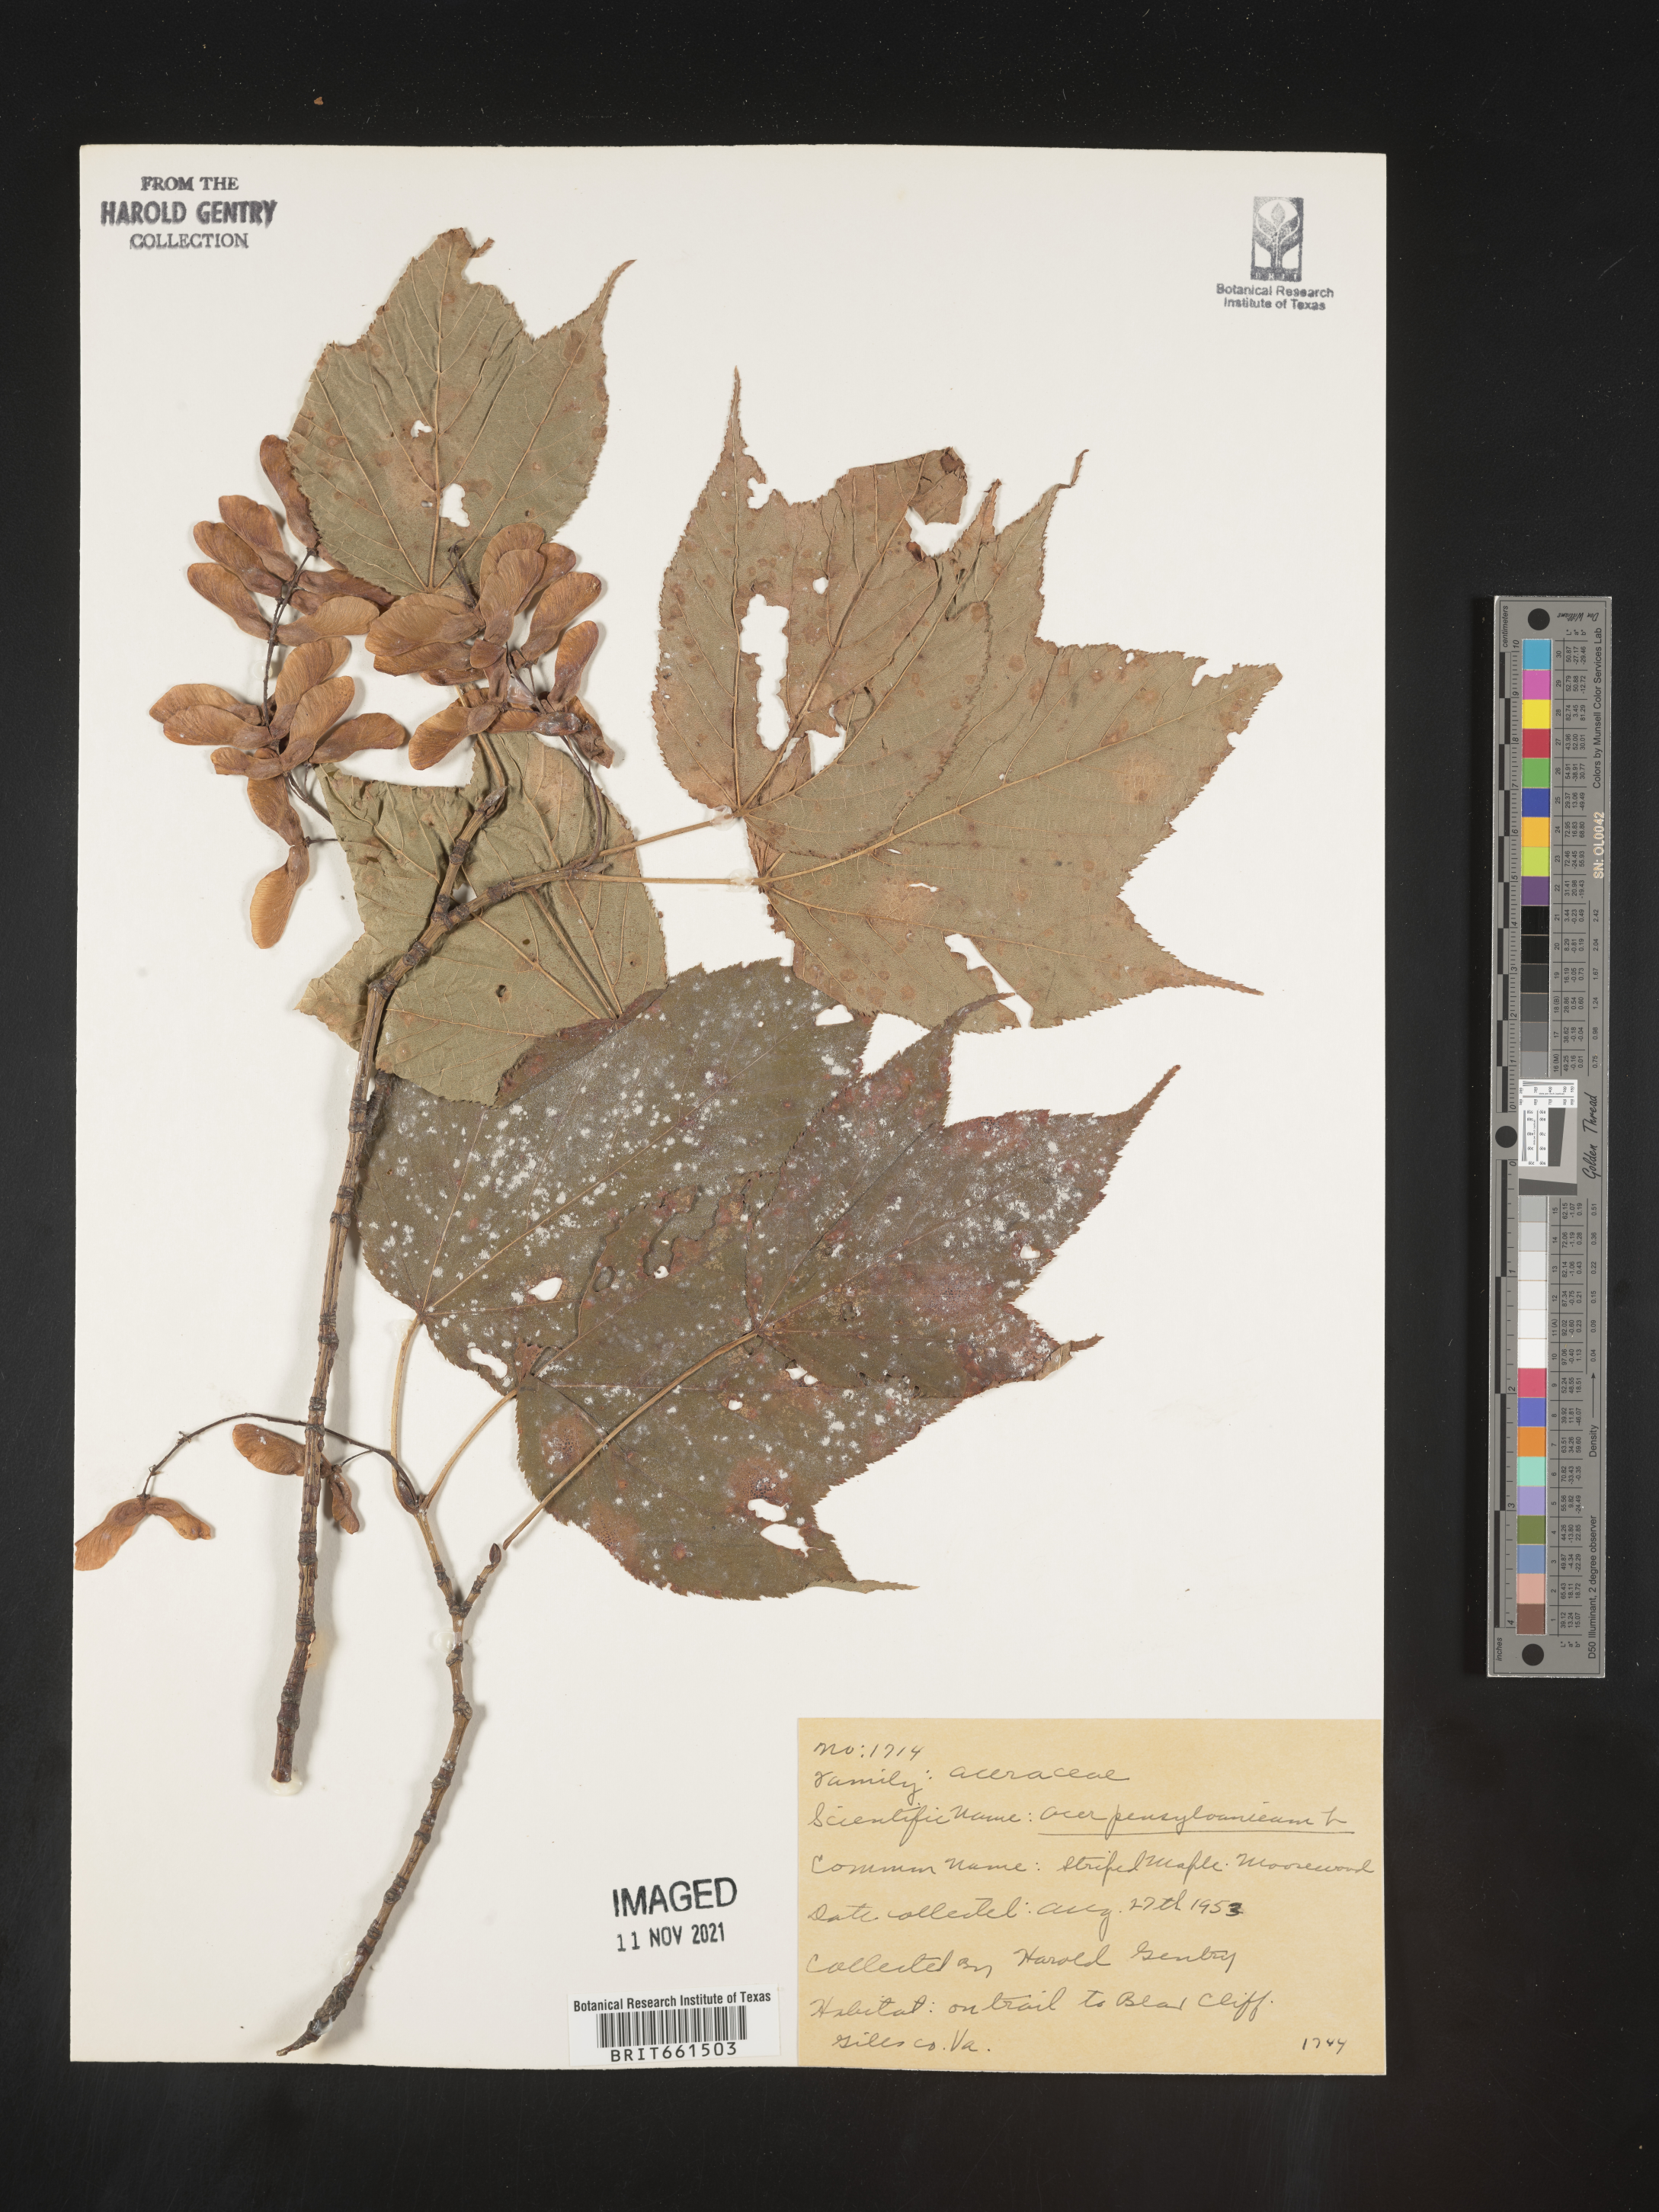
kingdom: Plantae
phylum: Tracheophyta
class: Magnoliopsida
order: Sapindales
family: Sapindaceae
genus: Acer
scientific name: Acer pensylvanicum
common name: Moosewood
